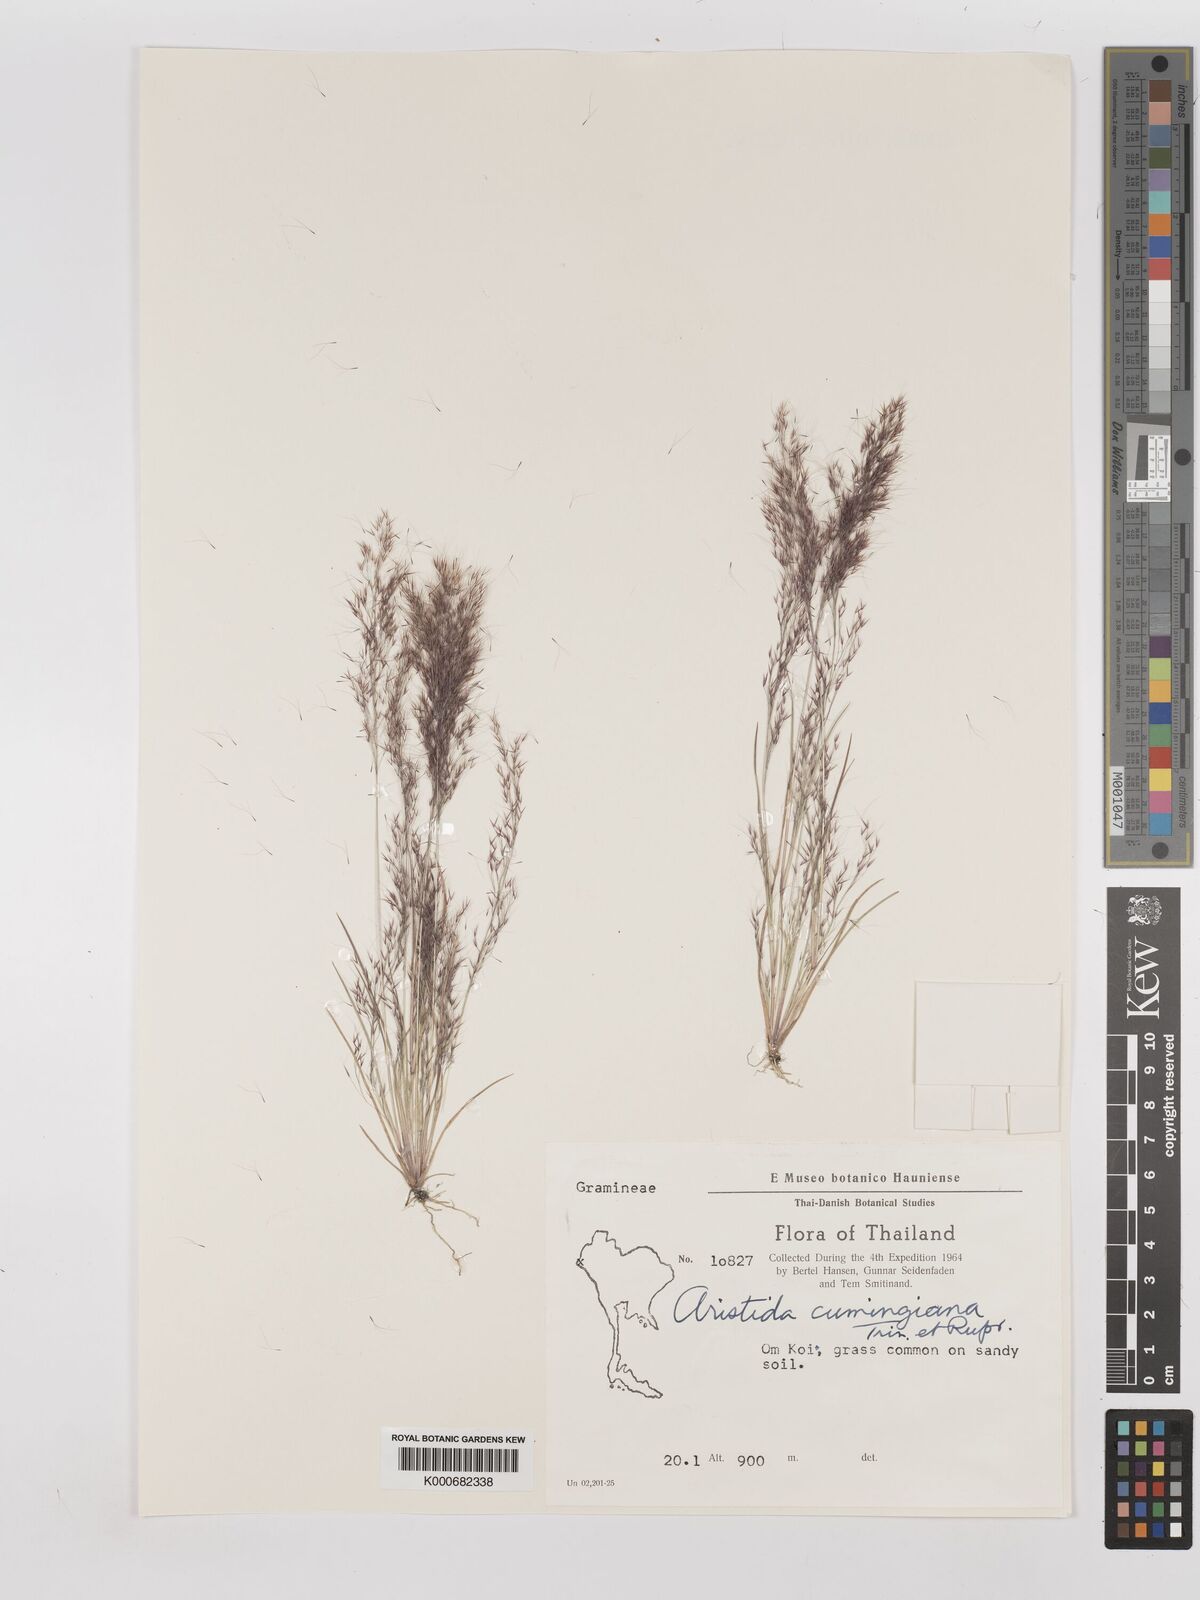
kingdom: Plantae
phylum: Tracheophyta
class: Liliopsida
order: Poales
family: Poaceae
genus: Aristida
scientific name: Aristida cumingiana
